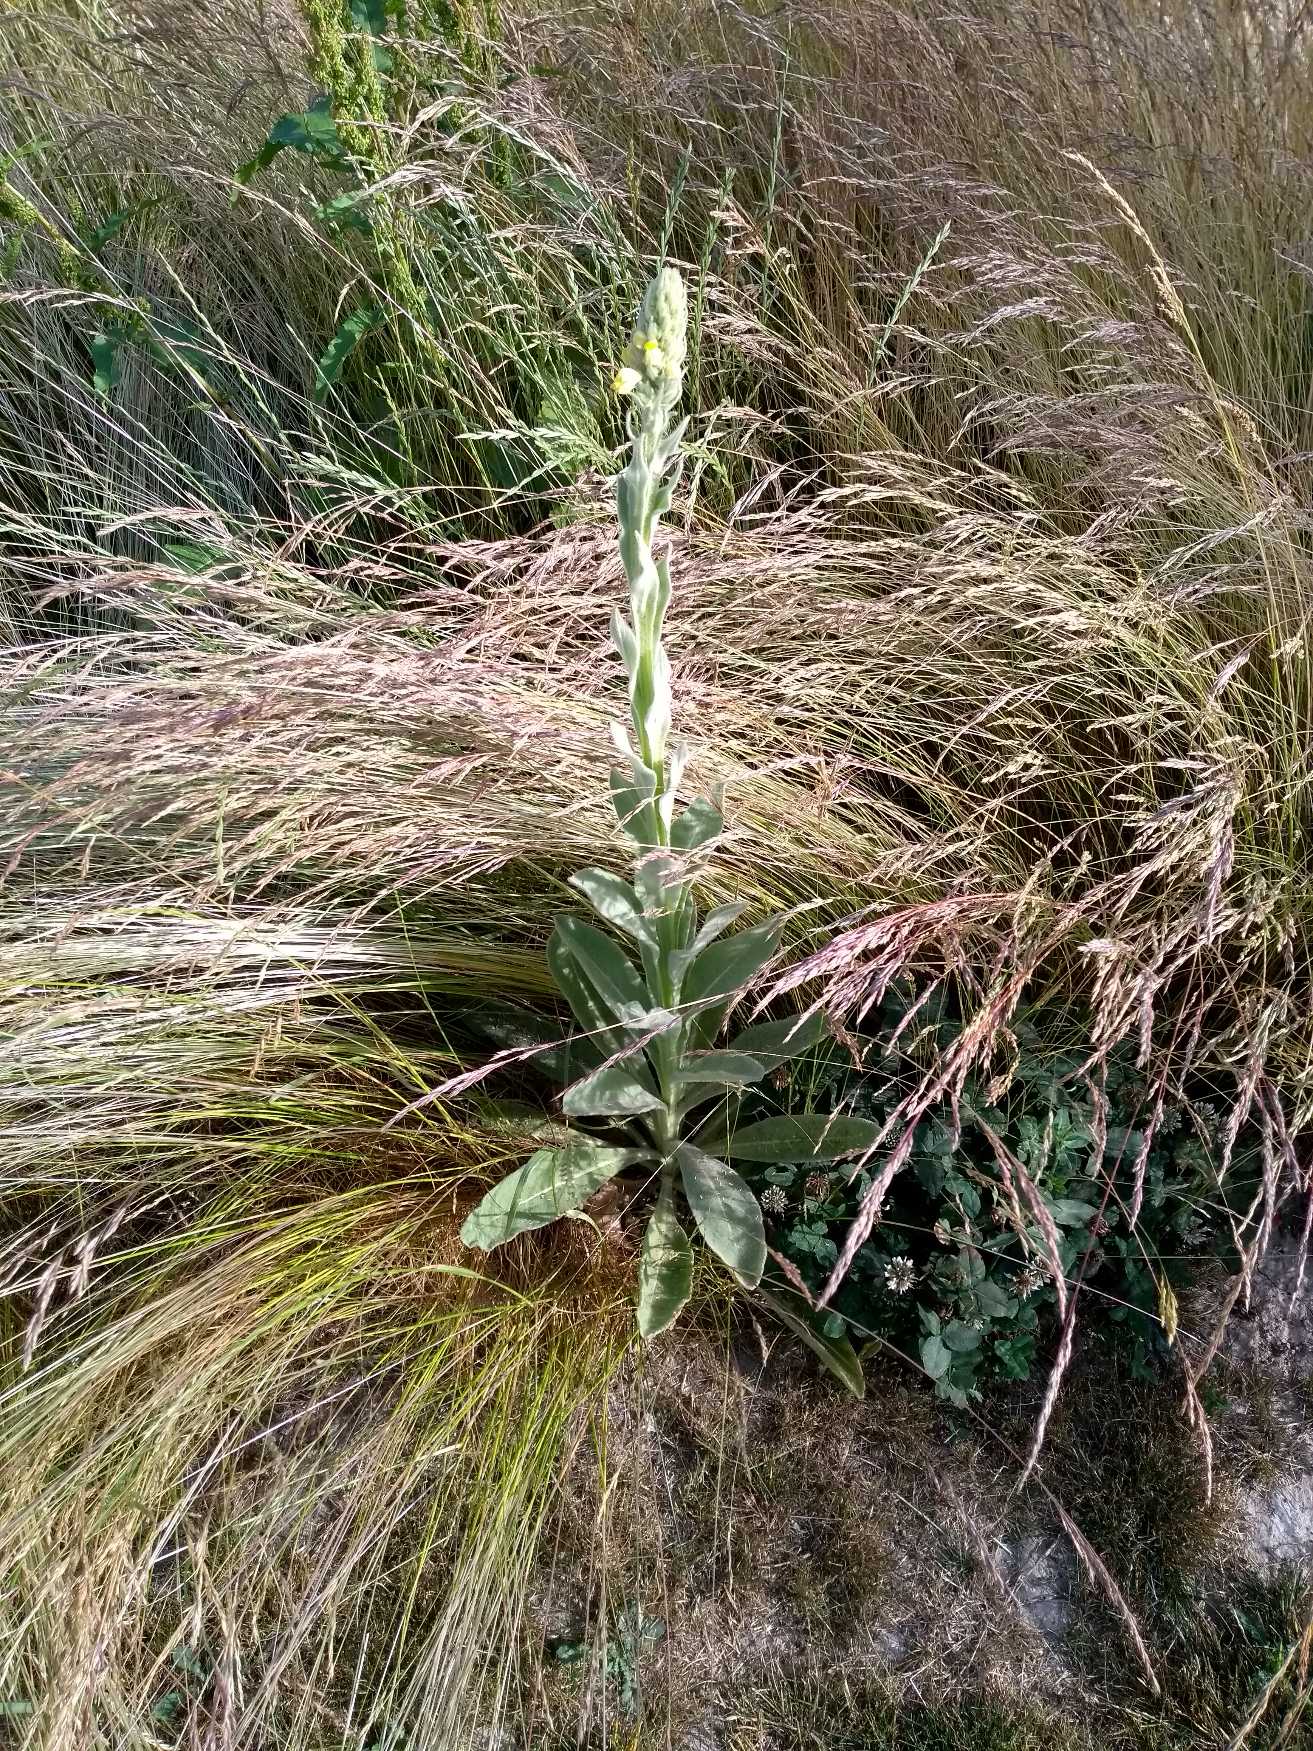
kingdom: Plantae
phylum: Tracheophyta
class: Magnoliopsida
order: Lamiales
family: Scrophulariaceae
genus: Verbascum
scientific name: Verbascum thapsus
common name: Filtbladet kongelys
